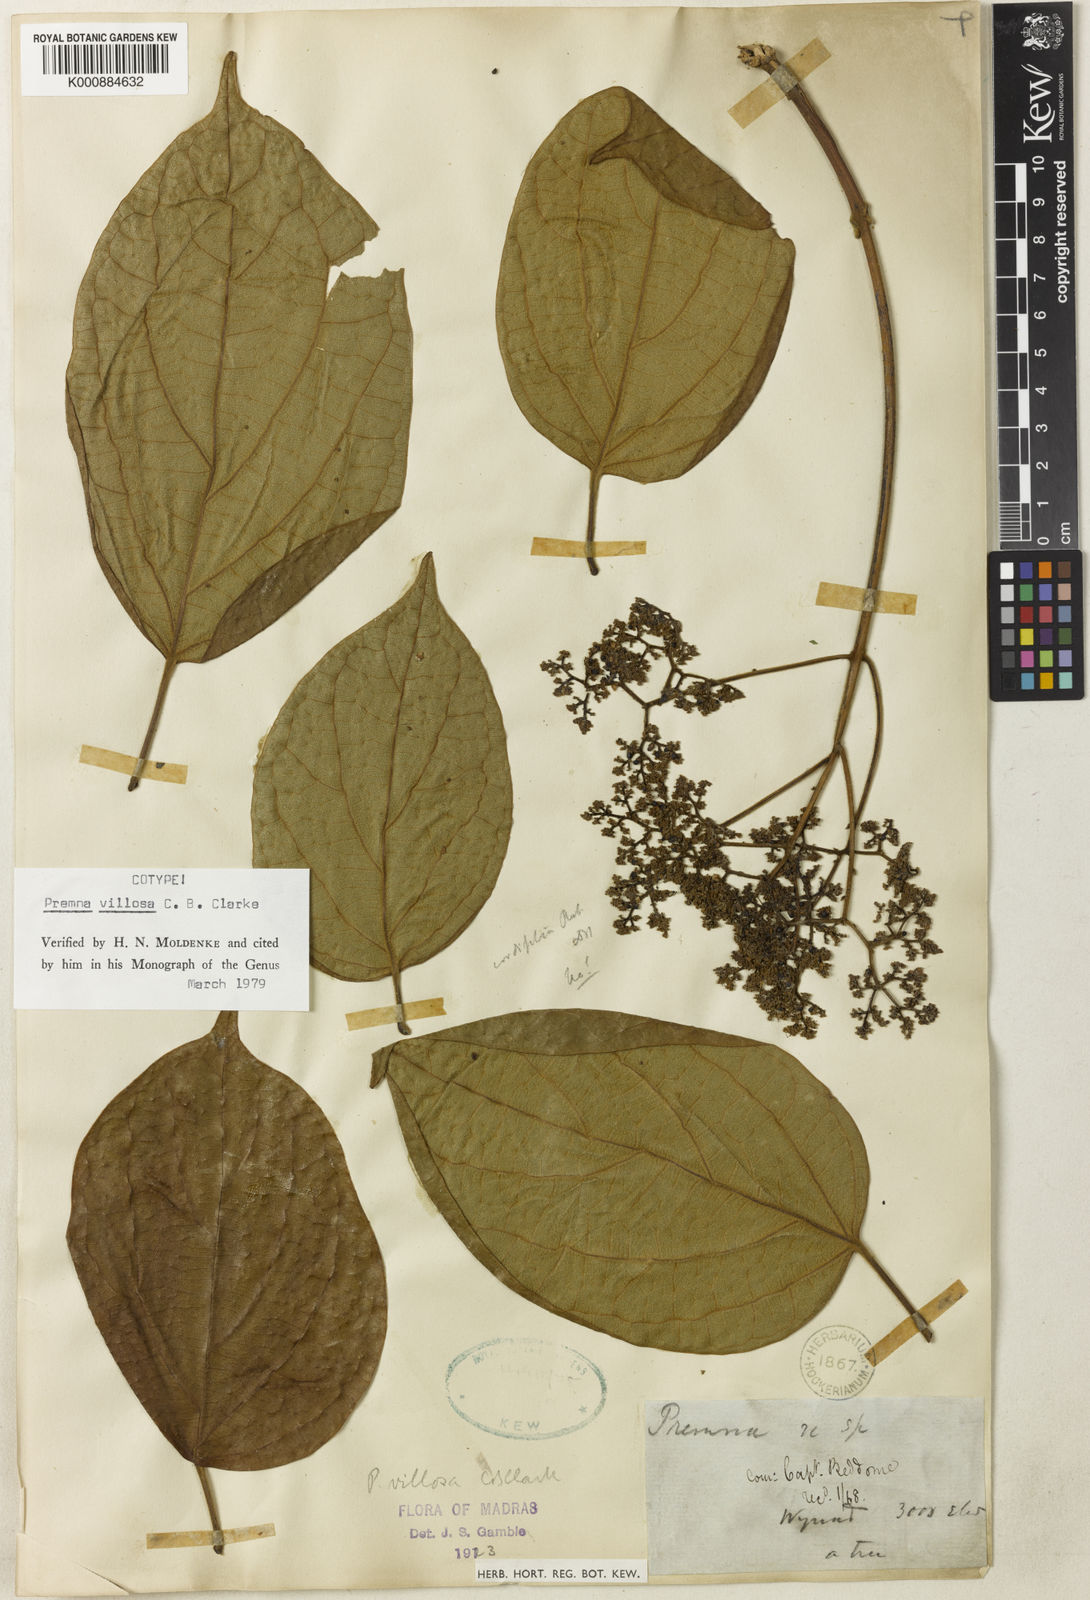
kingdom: Plantae
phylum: Tracheophyta
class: Magnoliopsida
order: Lamiales
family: Lamiaceae
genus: Premna
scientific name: Premna coriacea
